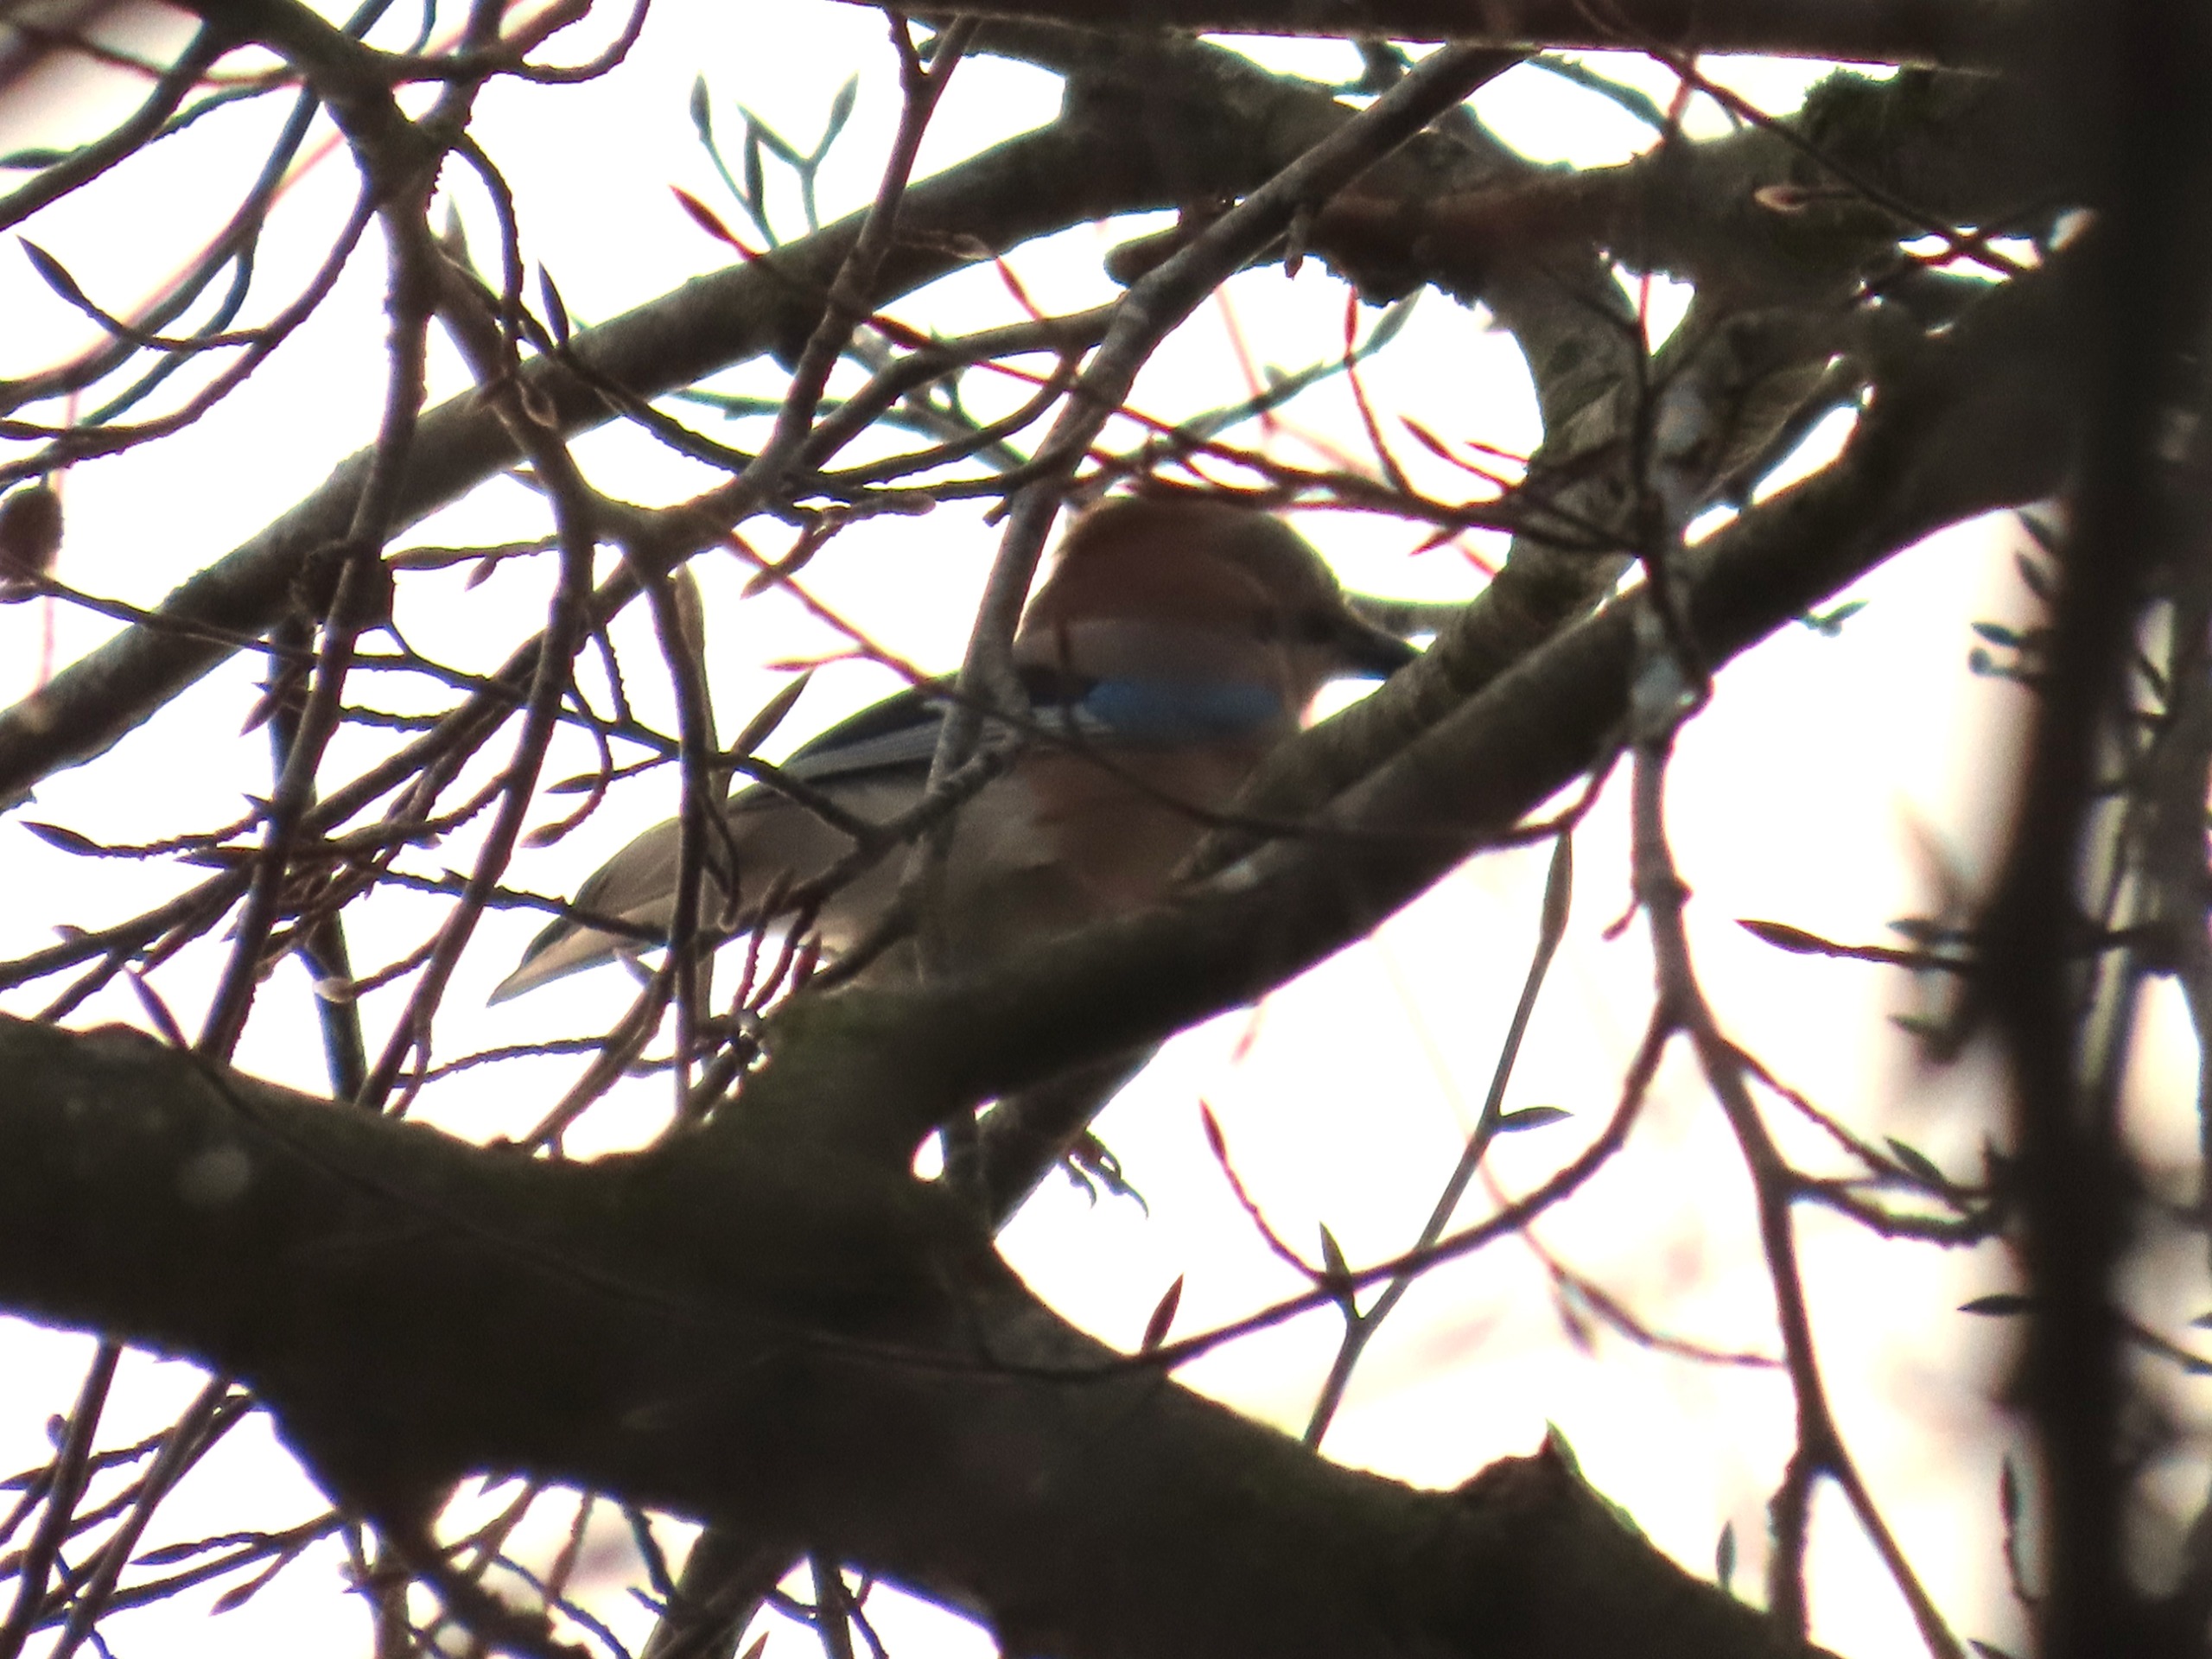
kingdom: Animalia
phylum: Chordata
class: Aves
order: Passeriformes
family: Corvidae
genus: Garrulus
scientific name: Garrulus glandarius
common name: Skovskade
